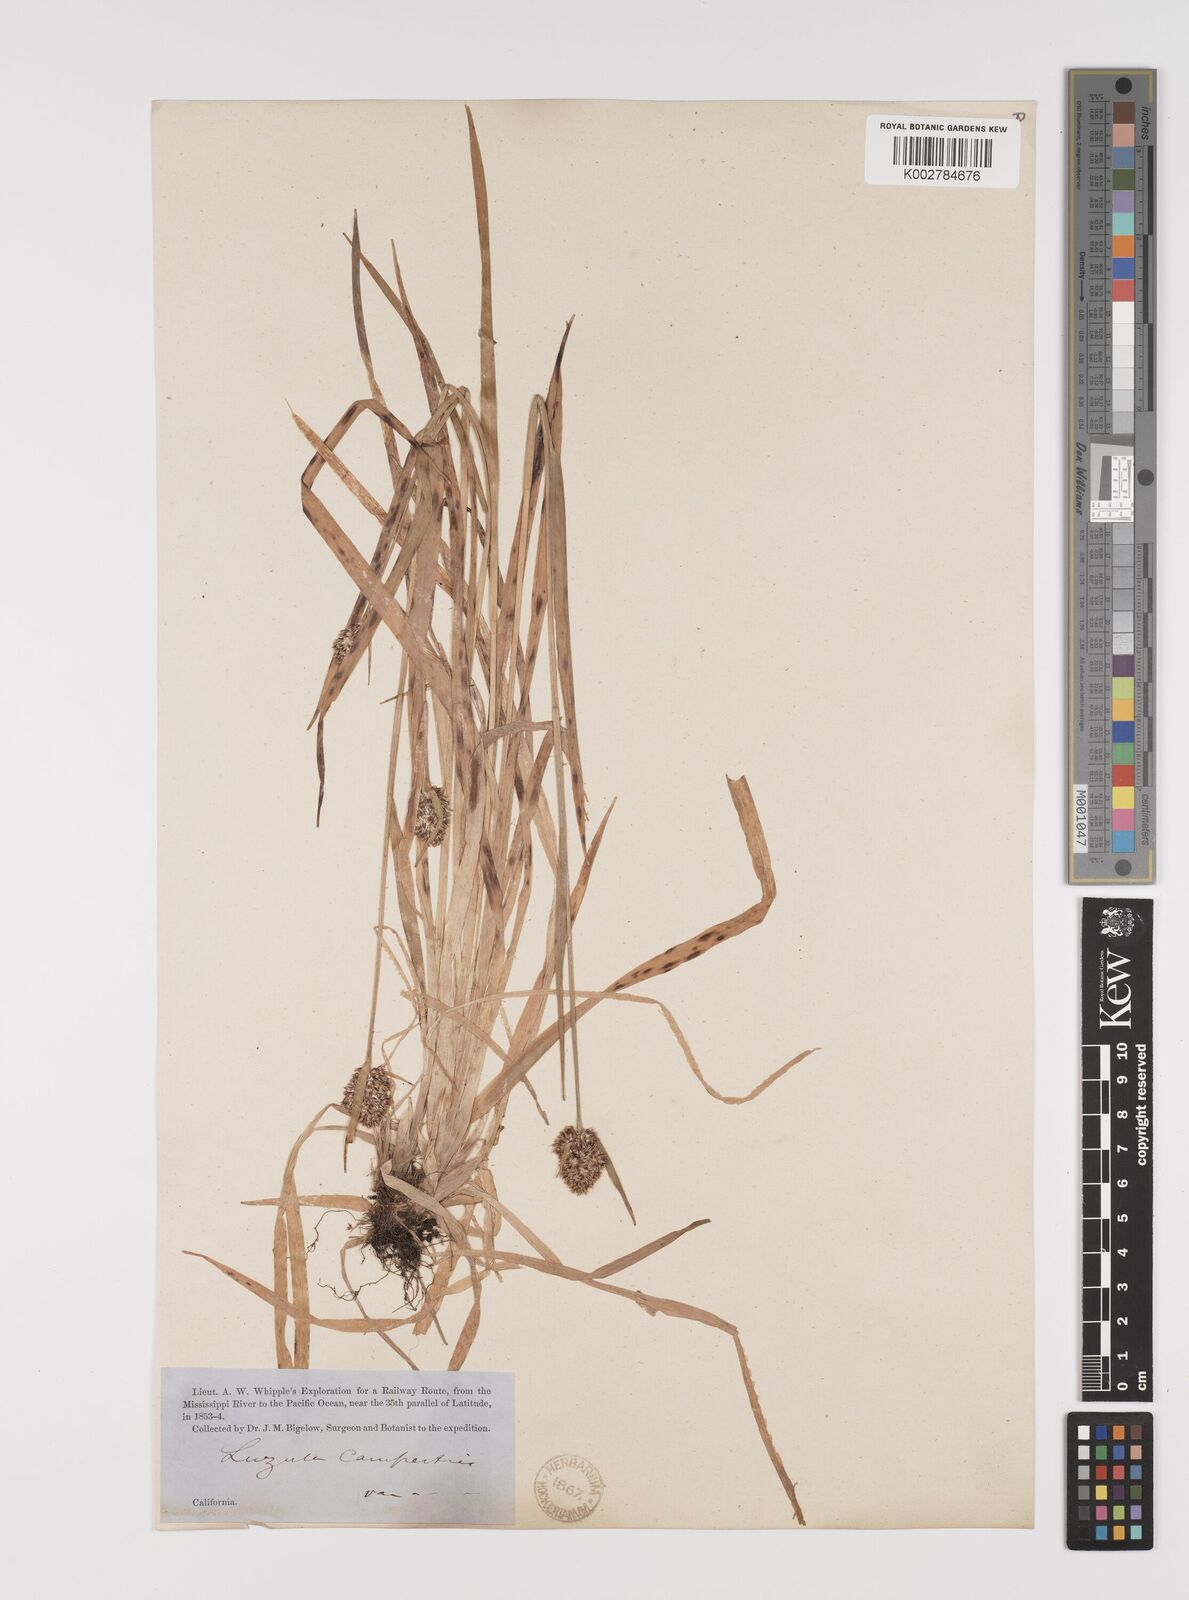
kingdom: Plantae
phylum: Tracheophyta
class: Liliopsida
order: Poales
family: Juncaceae
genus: Luzula
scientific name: Luzula campestris
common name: Field wood-rush
